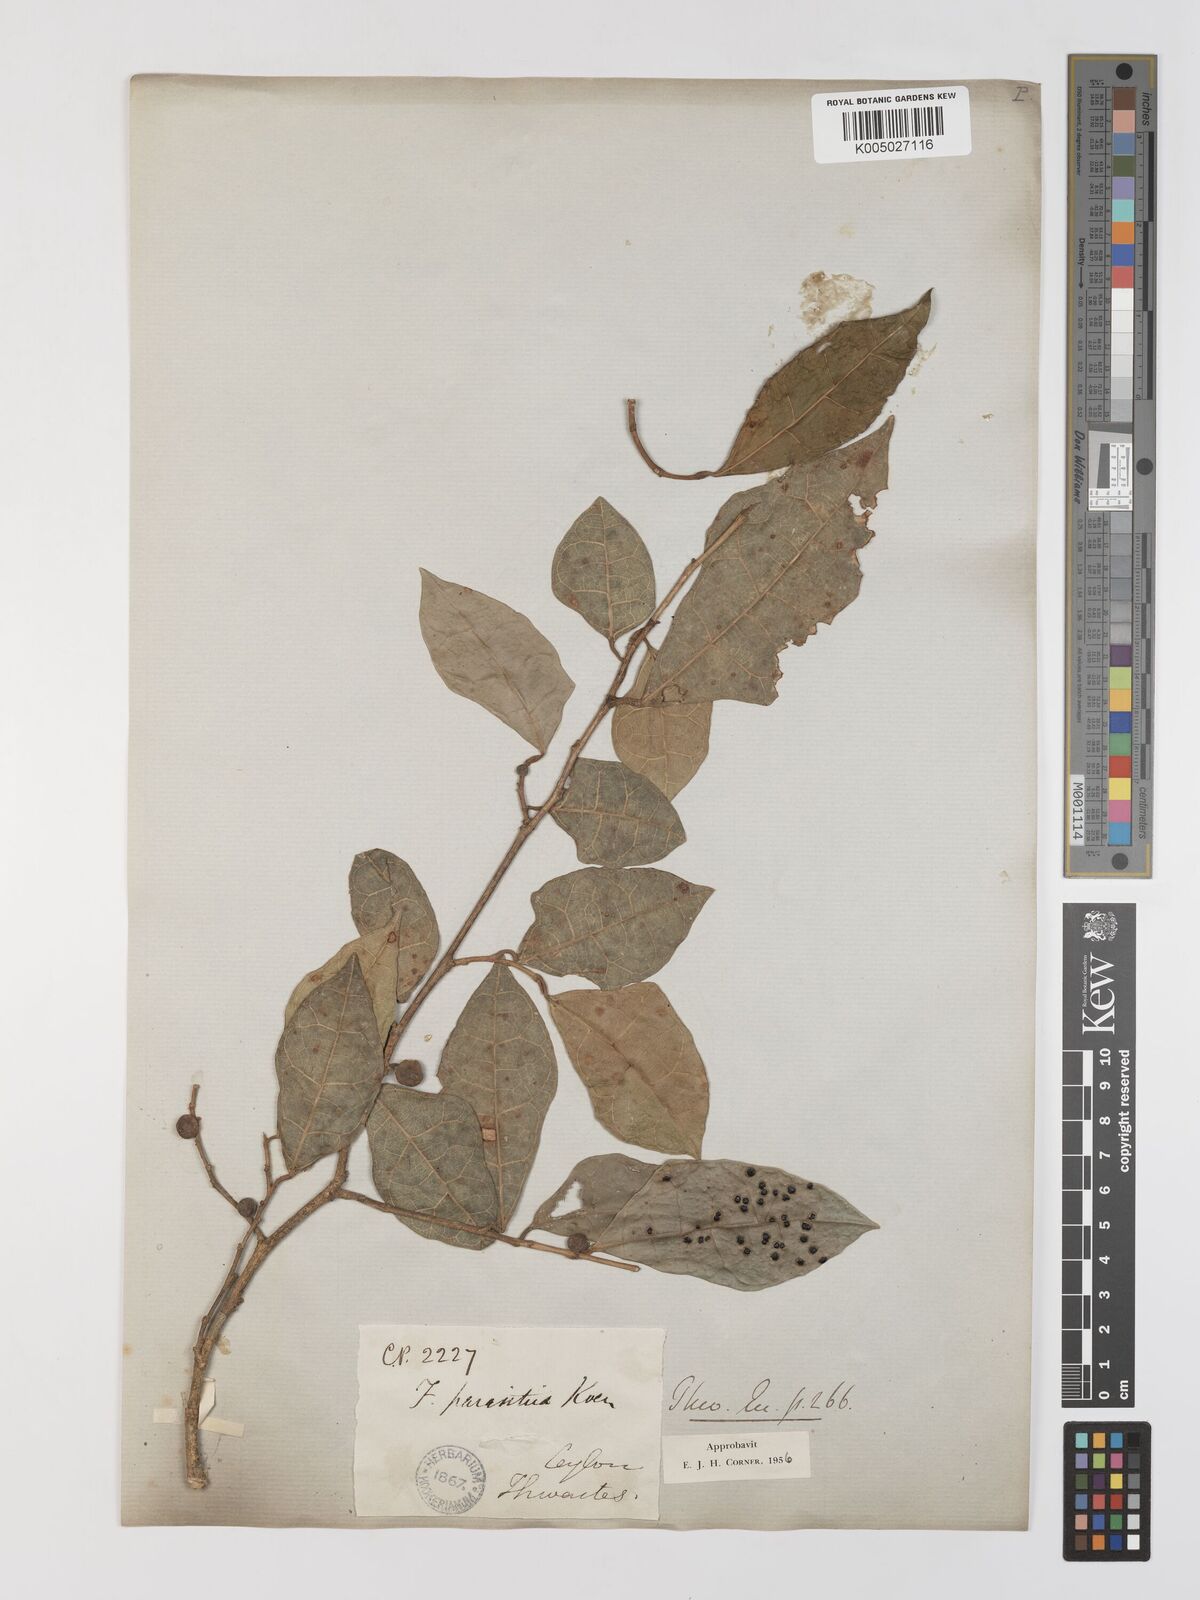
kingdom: Plantae
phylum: Tracheophyta
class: Magnoliopsida
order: Rosales
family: Moraceae
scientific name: Moraceae
